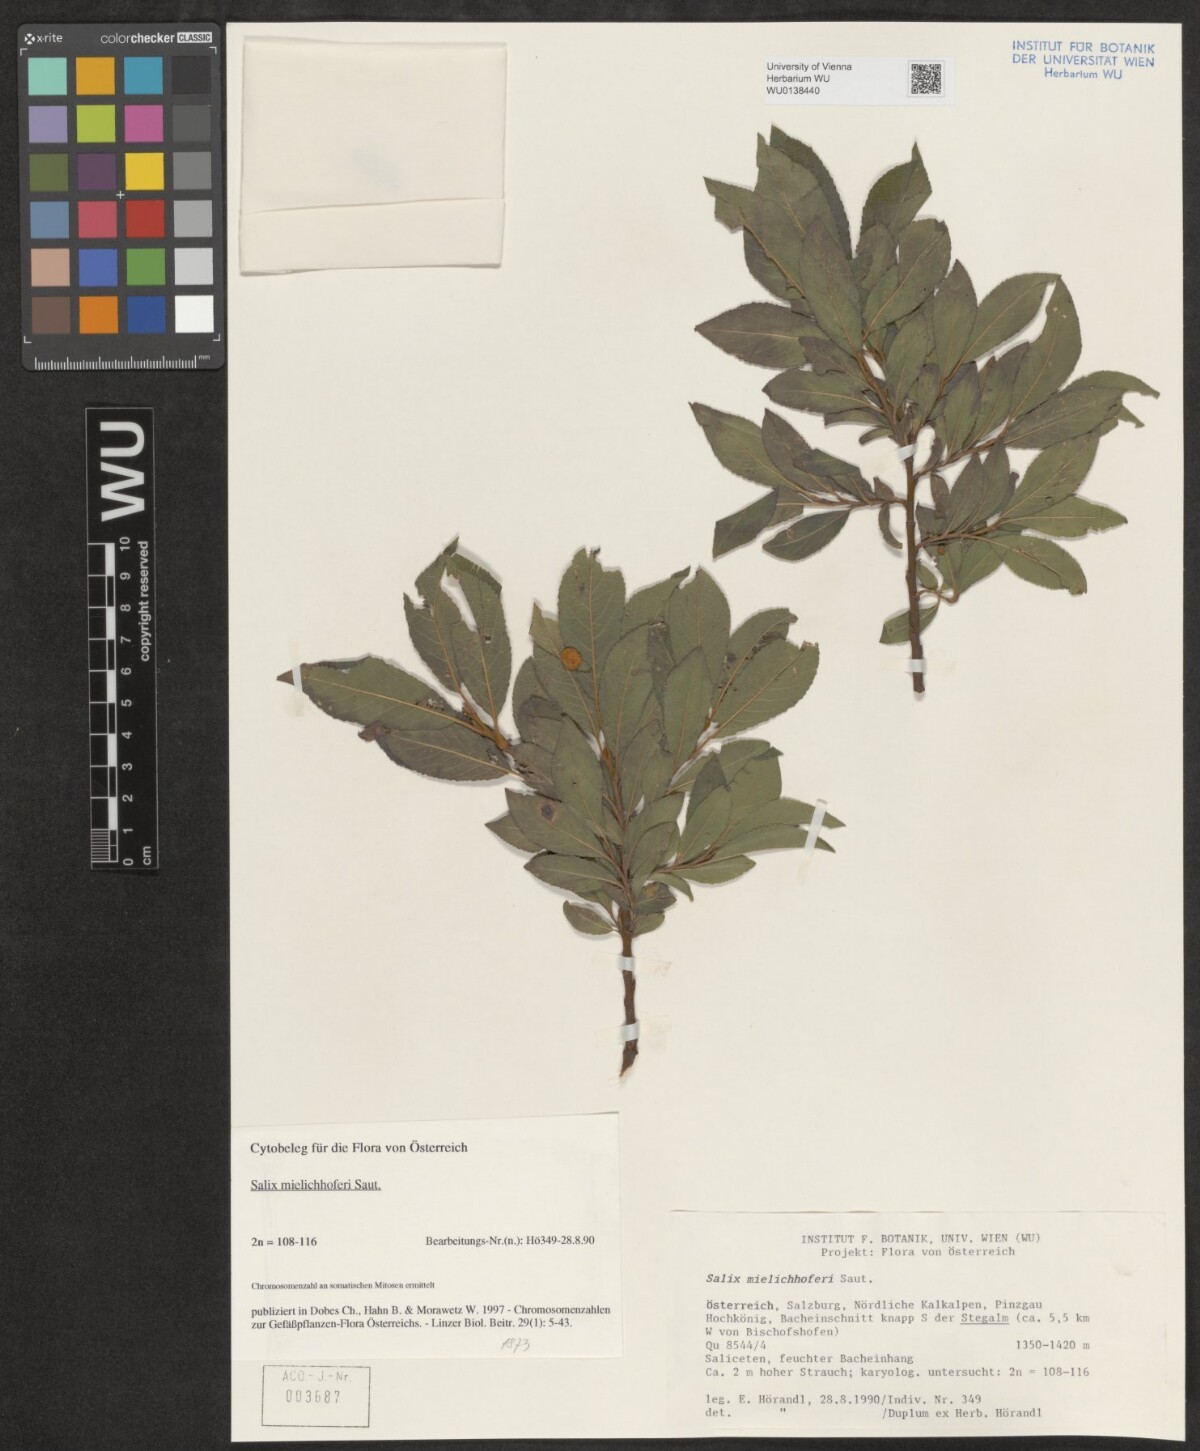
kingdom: Plantae
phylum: Tracheophyta
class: Magnoliopsida
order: Malpighiales
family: Salicaceae
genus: Salix
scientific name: Salix mielichhoferi
